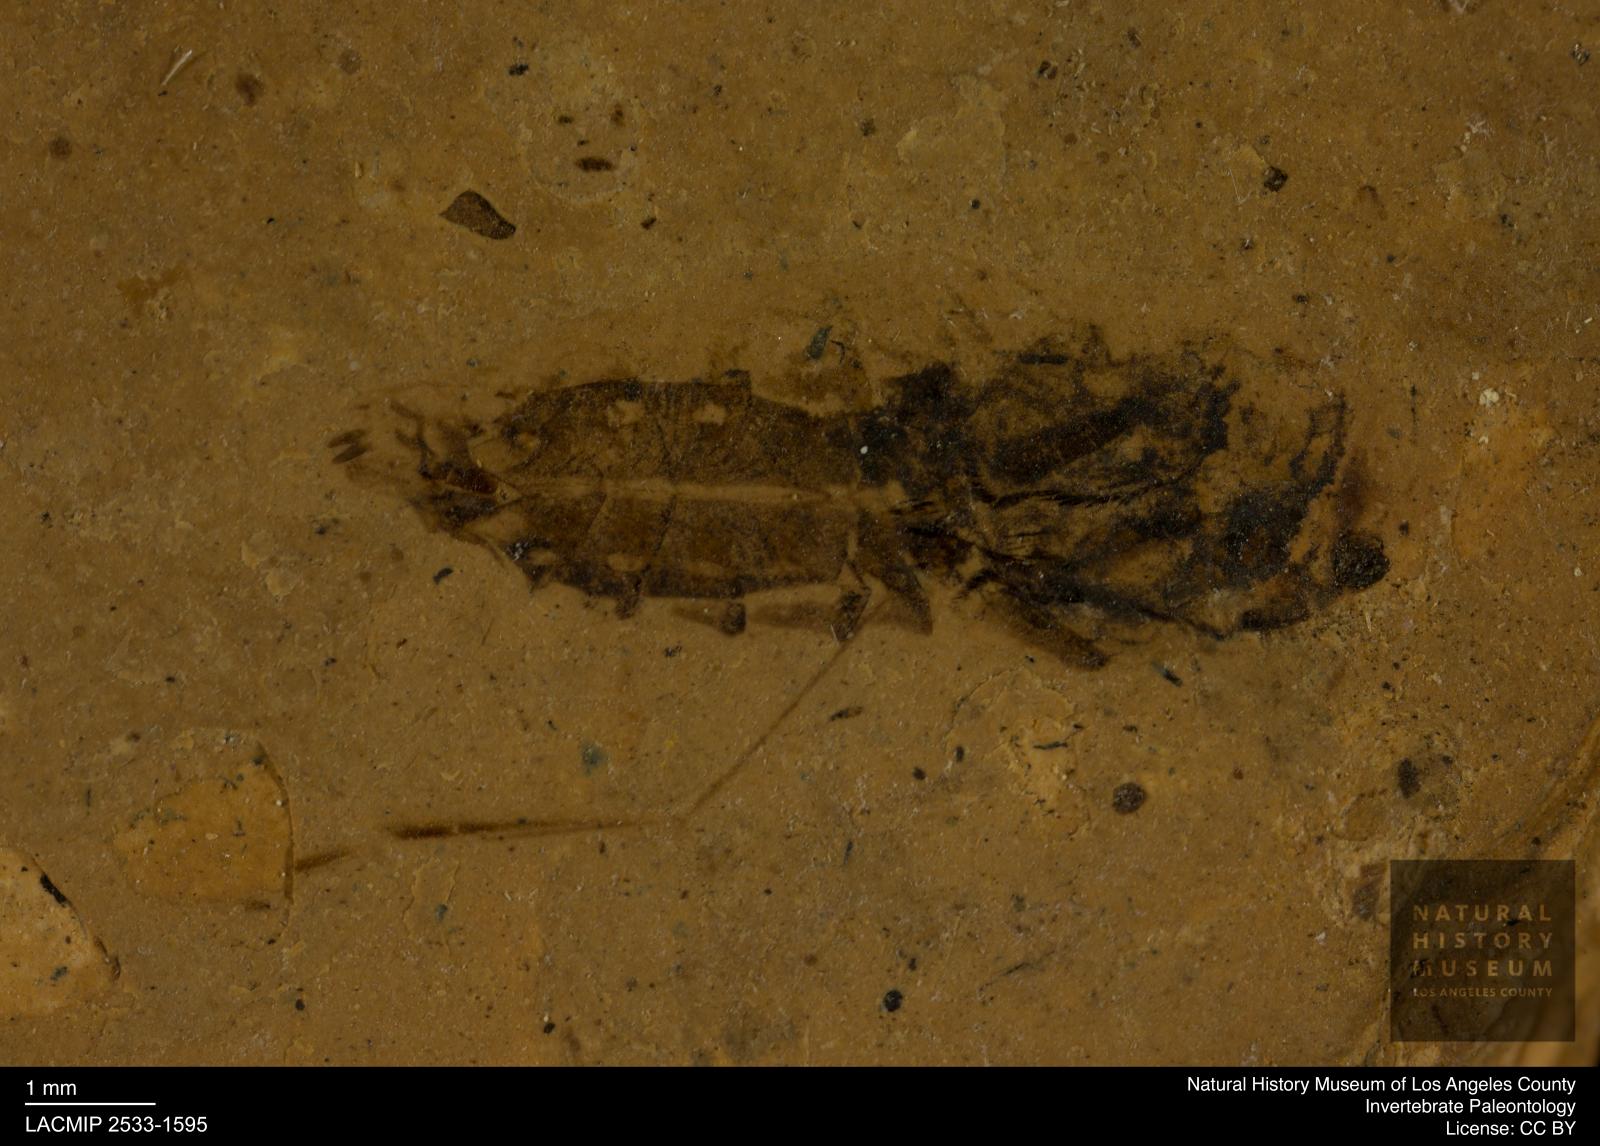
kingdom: Animalia
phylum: Arthropoda
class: Insecta
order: Hemiptera
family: Notonectidae
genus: Notonecta
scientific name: Notonecta
